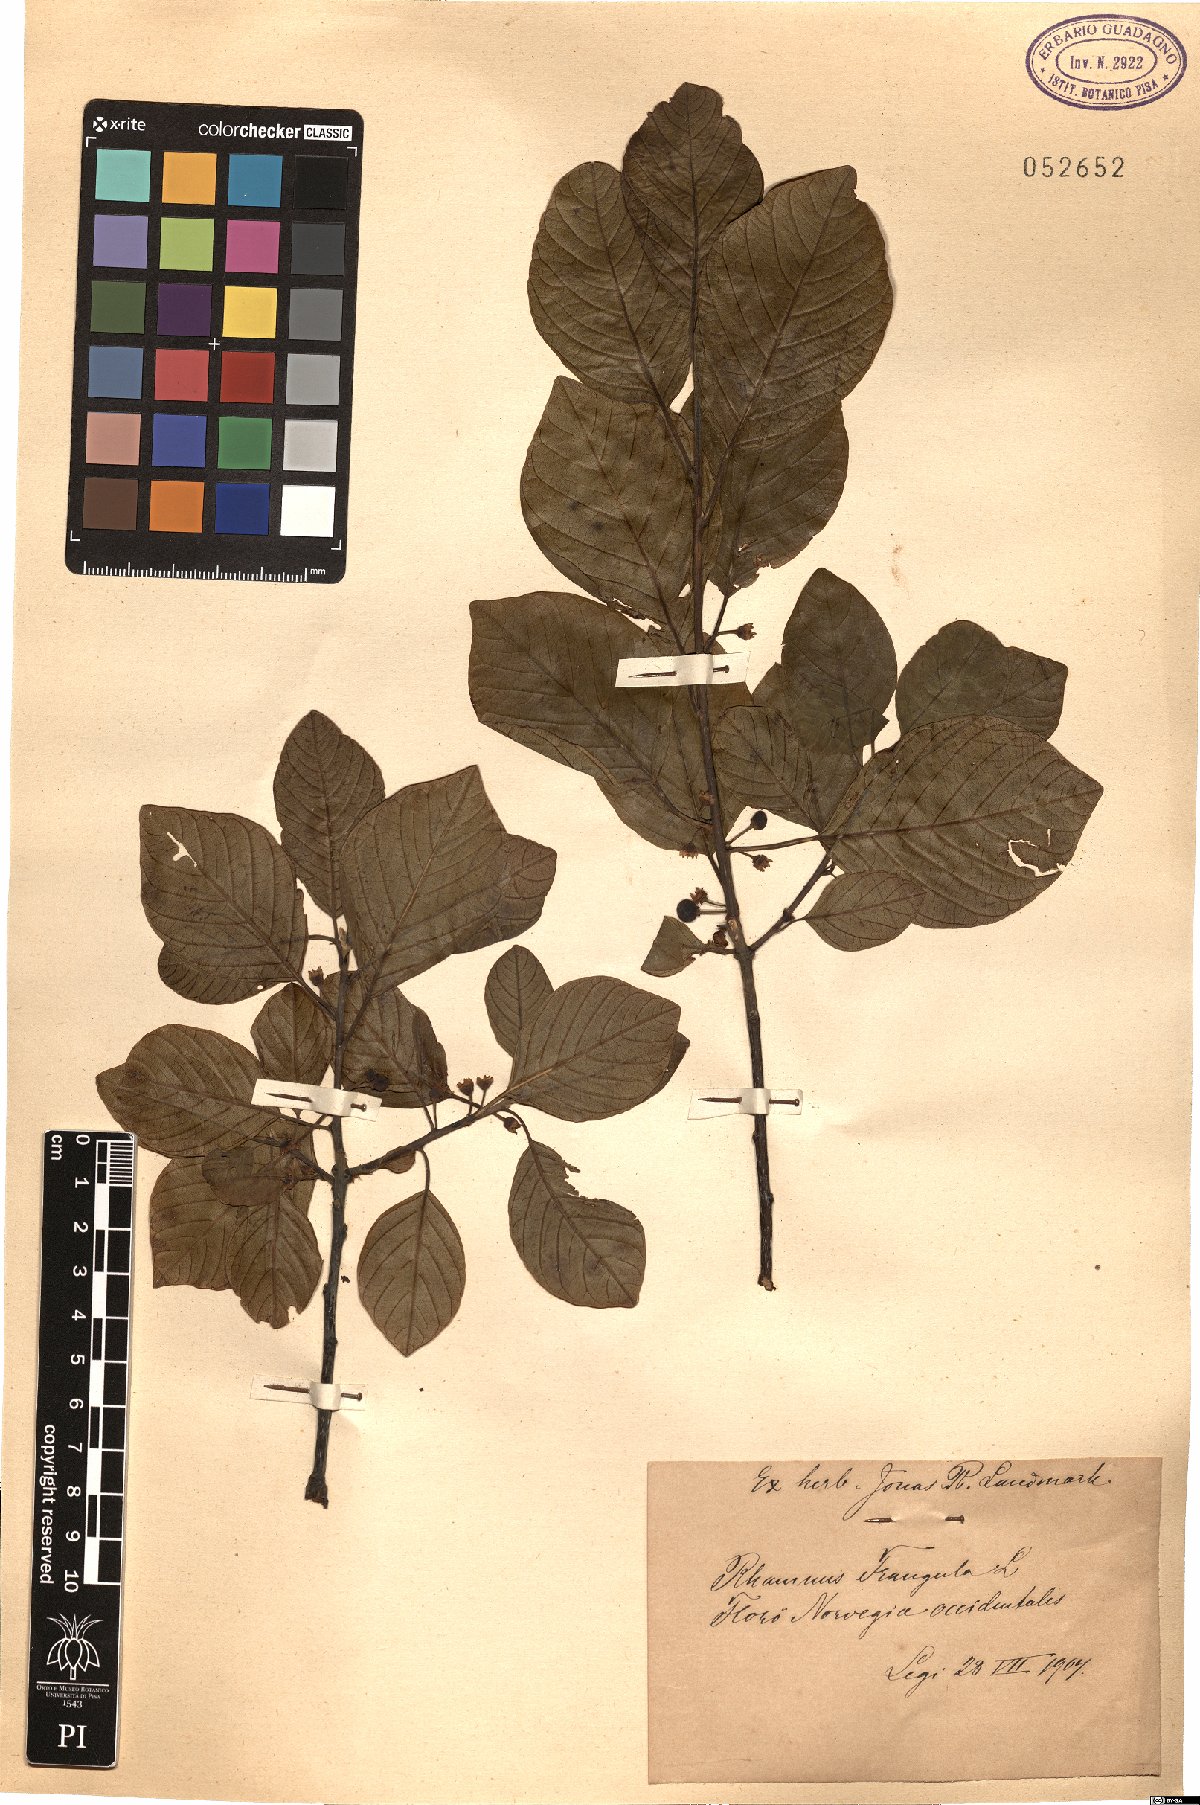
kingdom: Plantae
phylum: Tracheophyta
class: Magnoliopsida
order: Rosales
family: Rhamnaceae
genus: Frangula
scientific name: Frangula alnus
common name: Alder buckthorn
